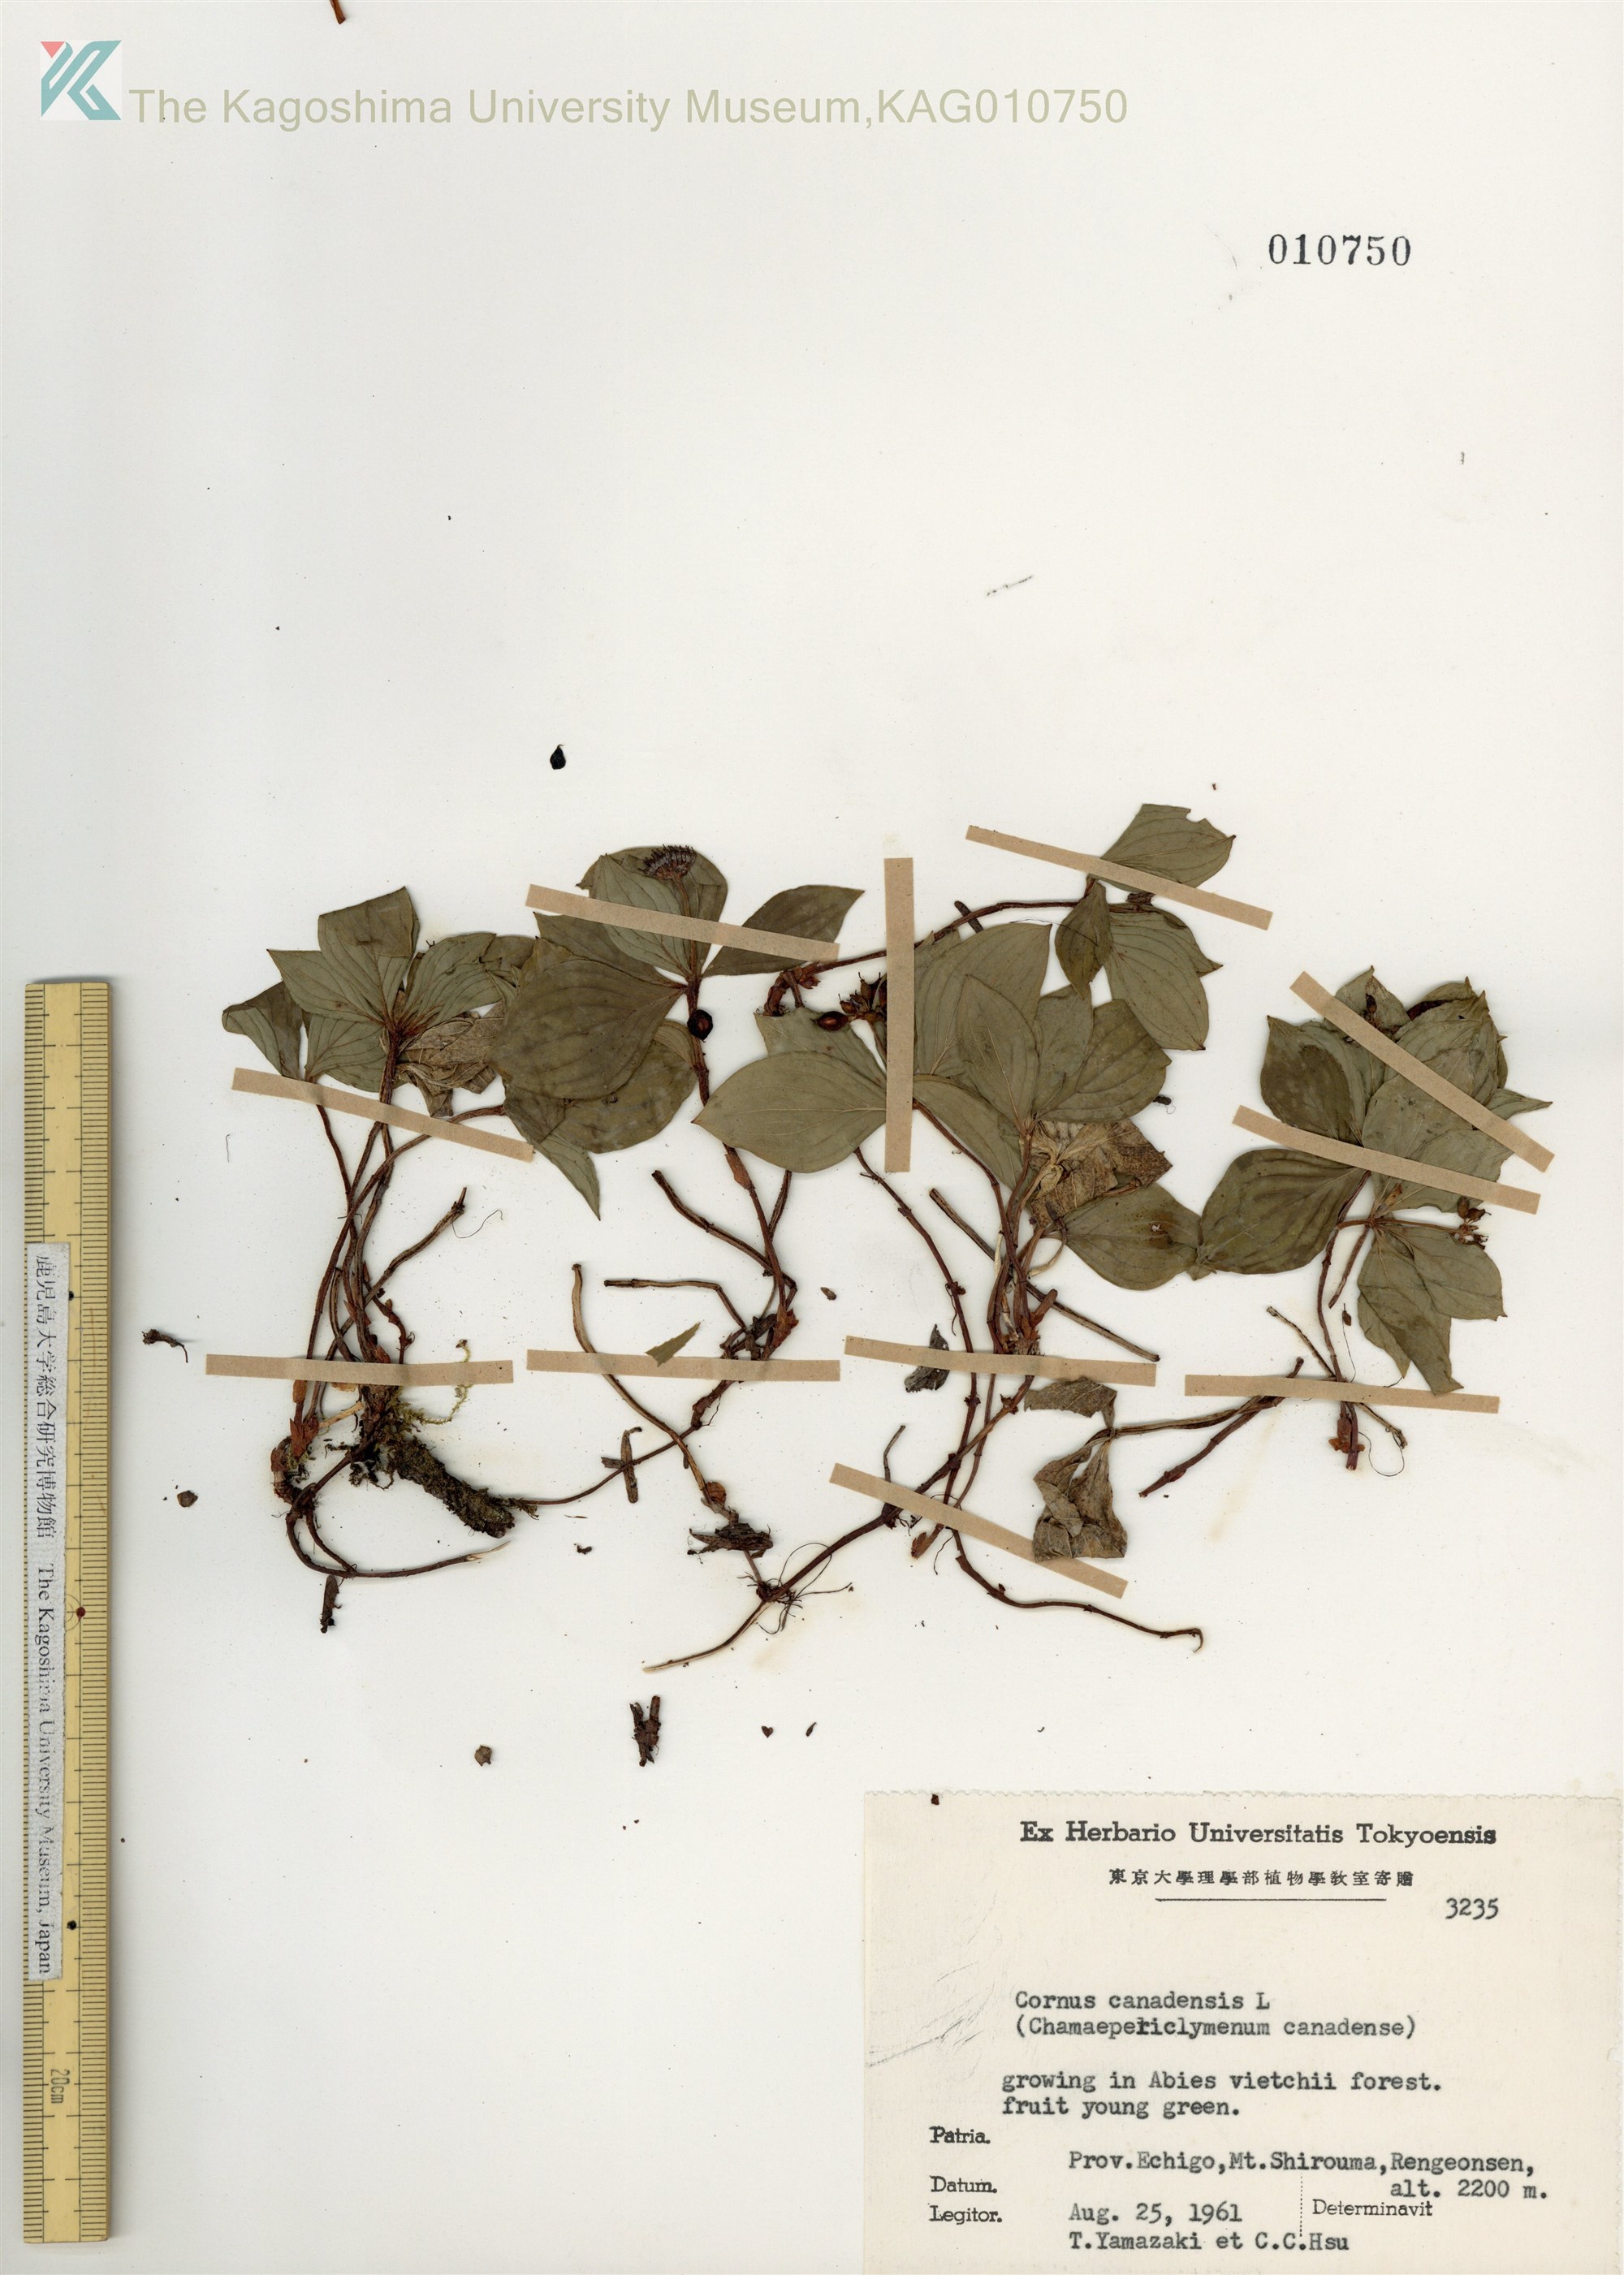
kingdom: Plantae
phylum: Tracheophyta
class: Magnoliopsida
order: Cornales
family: Cornaceae
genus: Cornus
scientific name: Cornus canadensis
